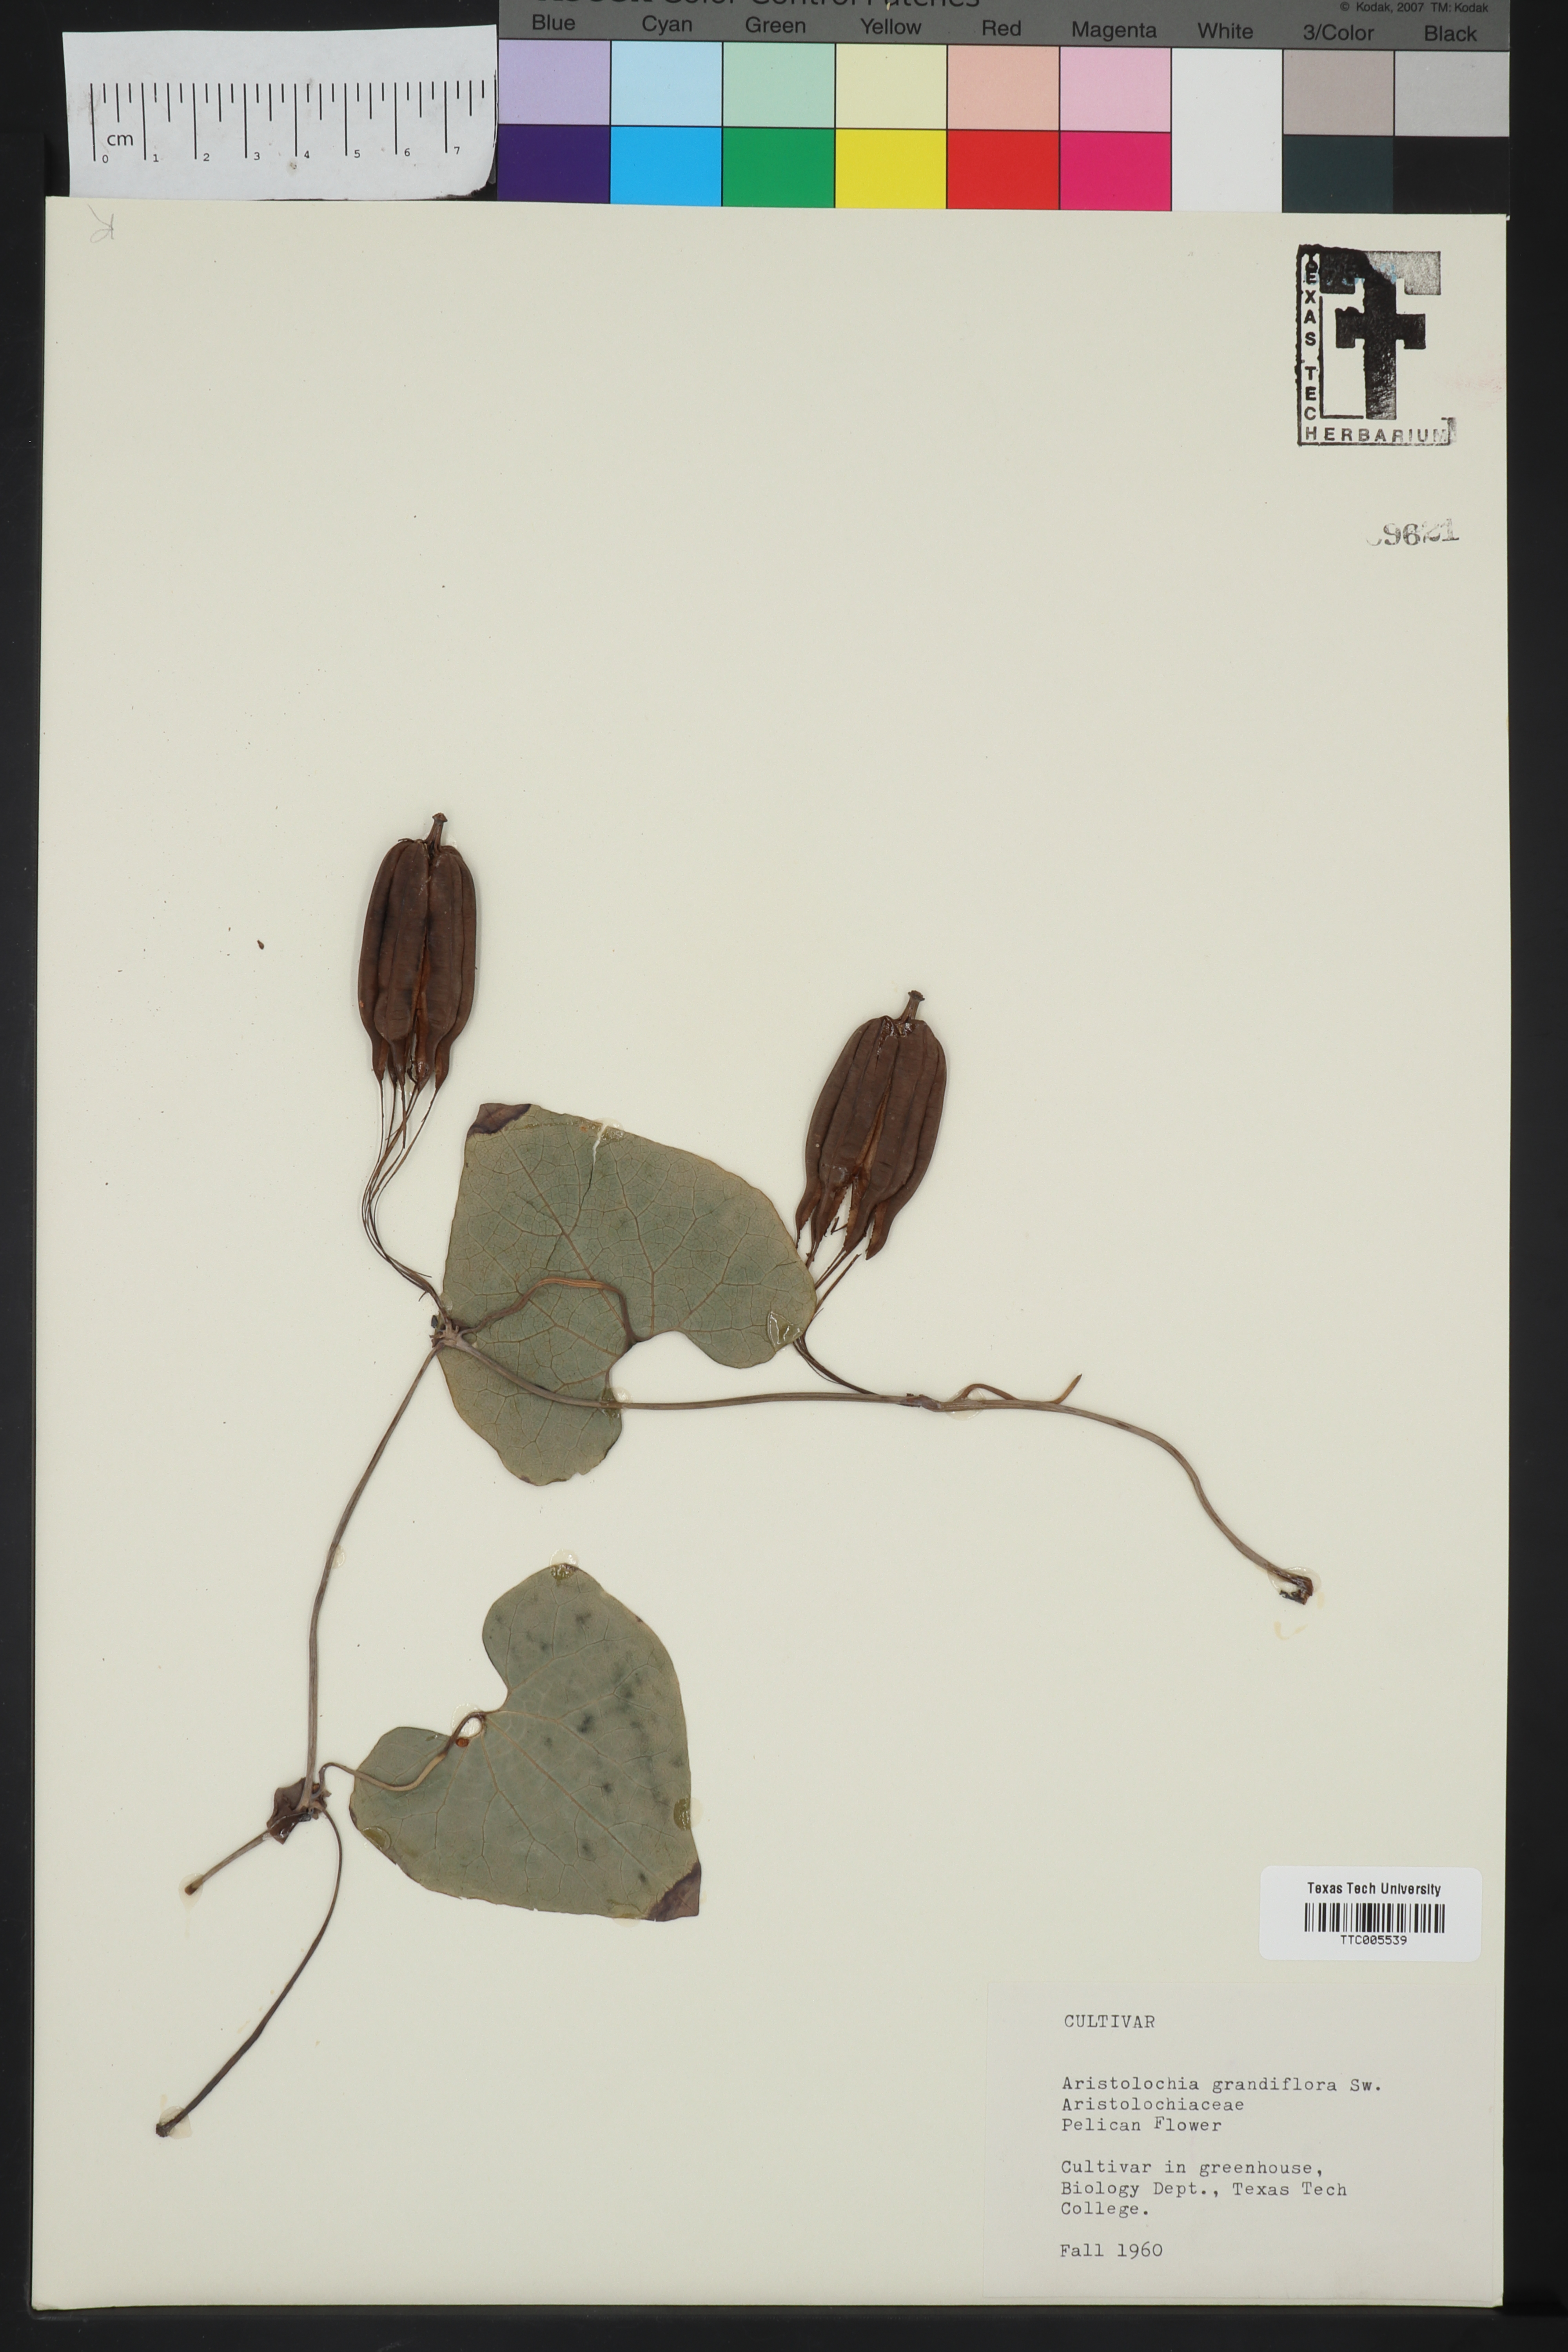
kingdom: Plantae
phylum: Tracheophyta
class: Magnoliopsida
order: Piperales
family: Aristolochiaceae
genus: Aristolochia
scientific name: Aristolochia grandiflora
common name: Pelicanflower
